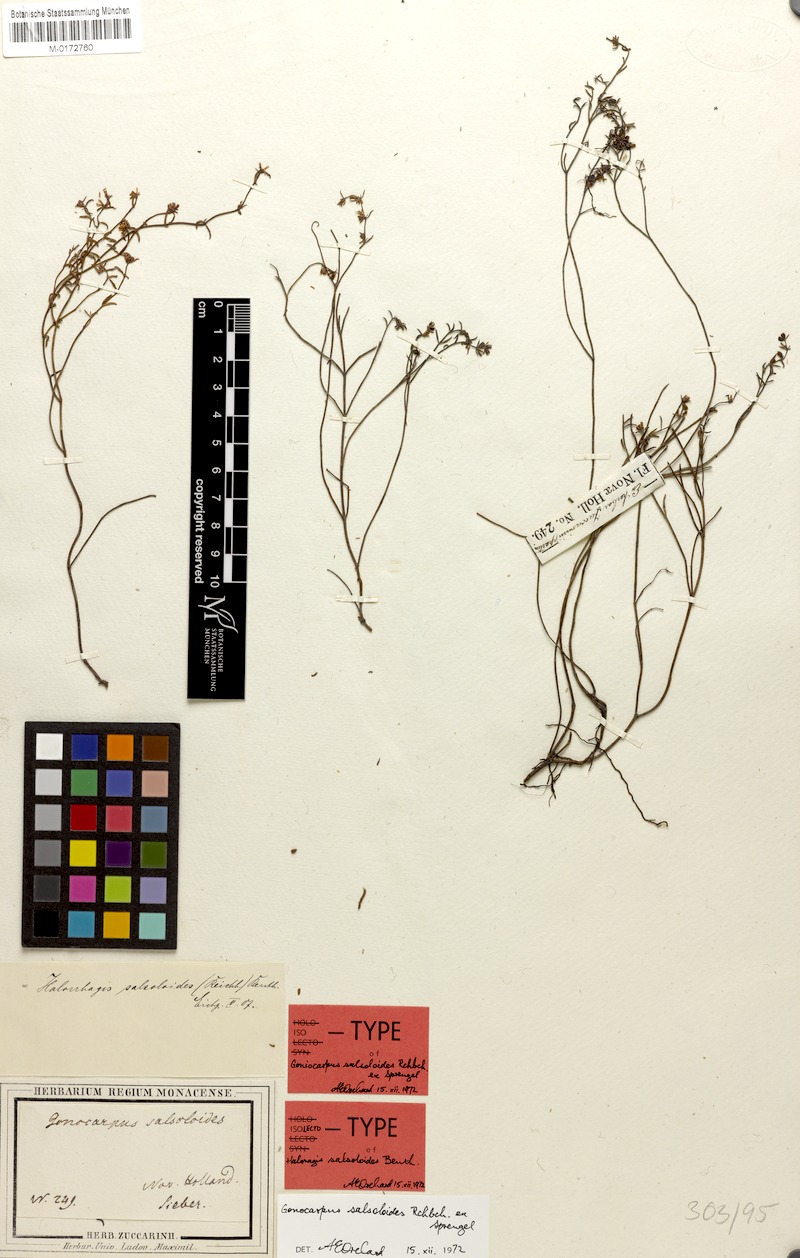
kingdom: Plantae
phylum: Tracheophyta
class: Magnoliopsida
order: Saxifragales
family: Haloragaceae
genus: Gonocarpus
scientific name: Gonocarpus salsoloides
